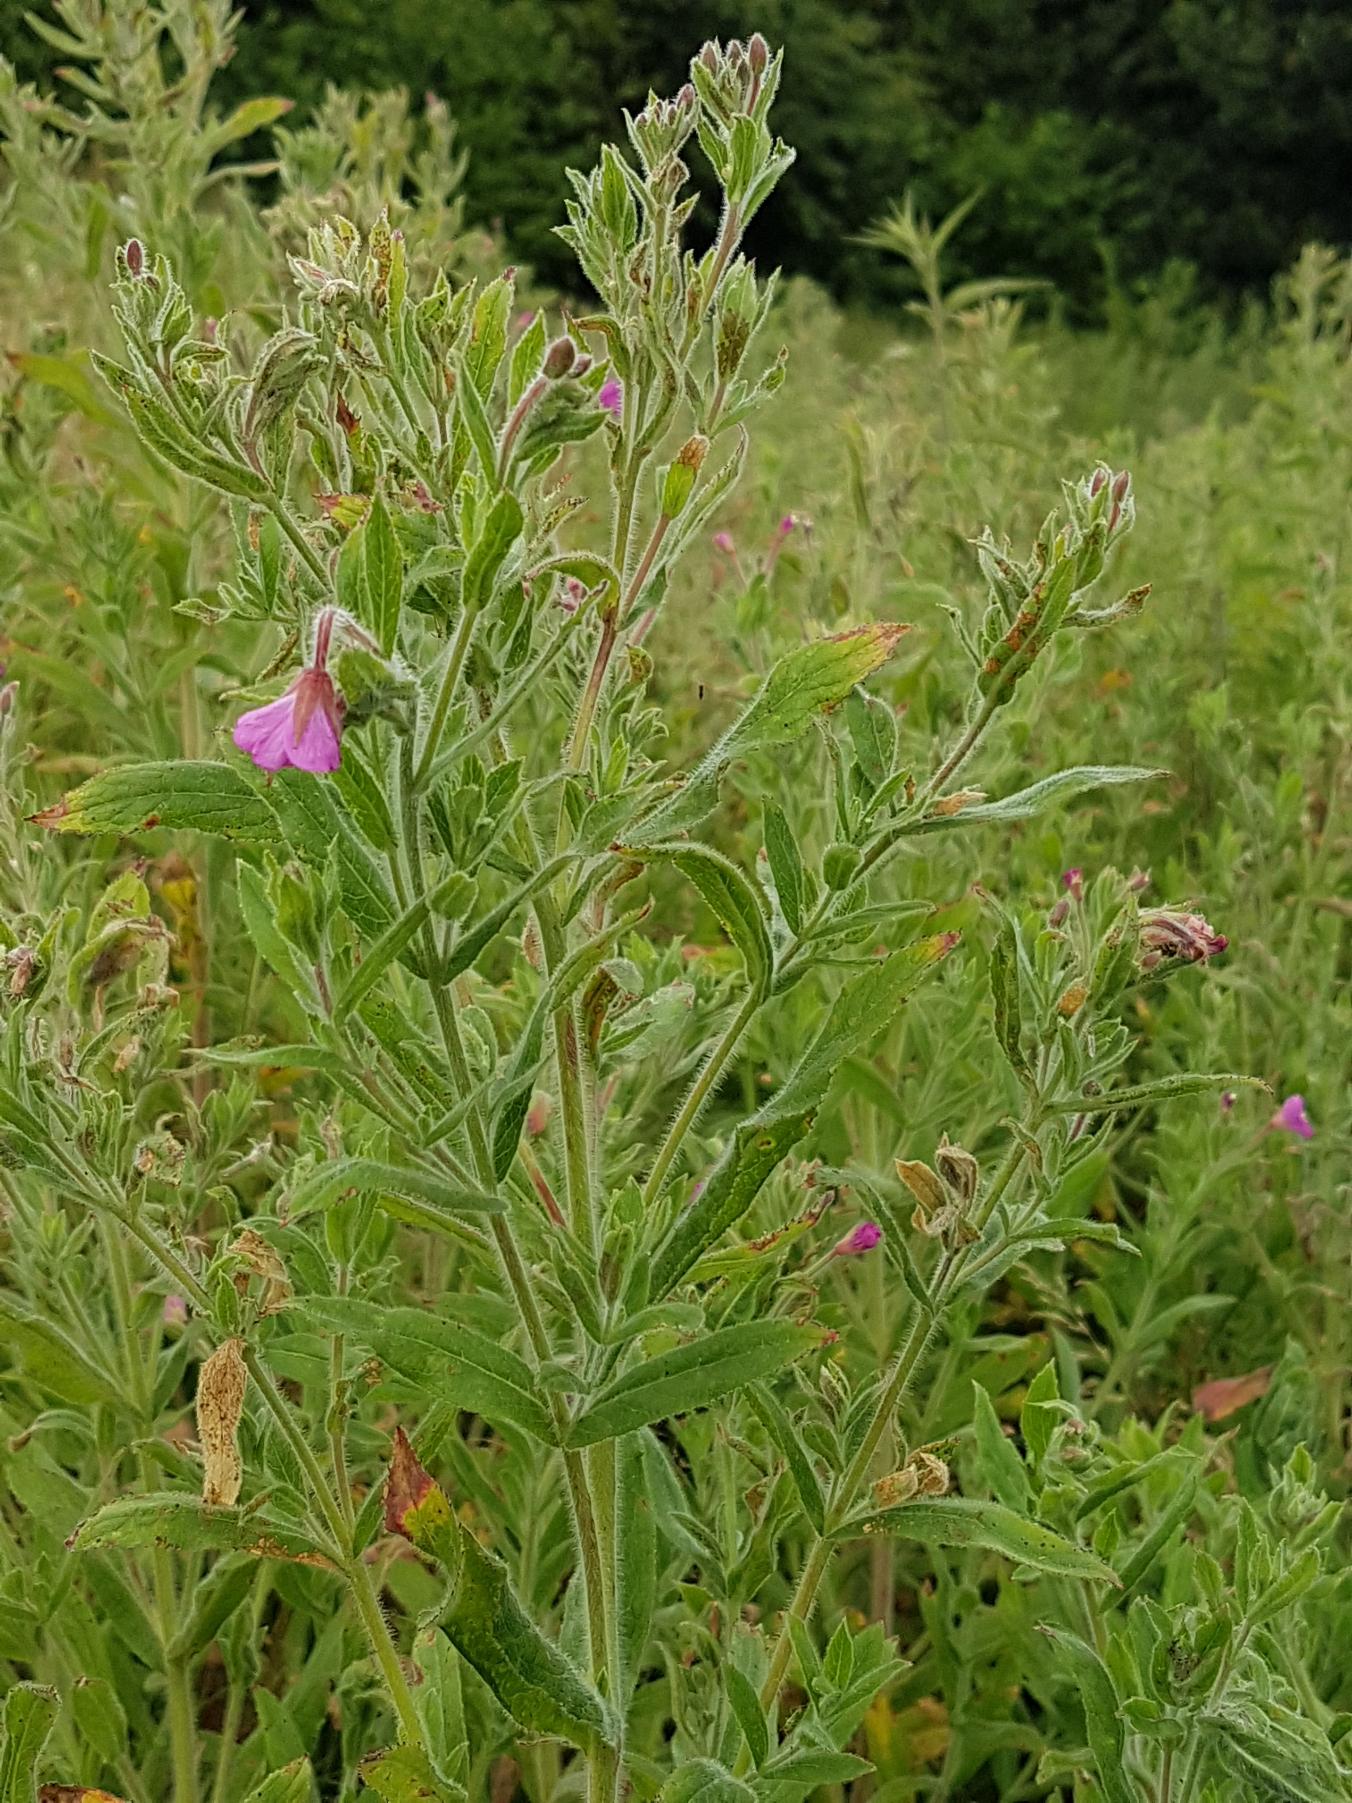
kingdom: Plantae
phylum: Tracheophyta
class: Magnoliopsida
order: Myrtales
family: Onagraceae
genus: Epilobium
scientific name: Epilobium hirsutum
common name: Lådden dueurt
